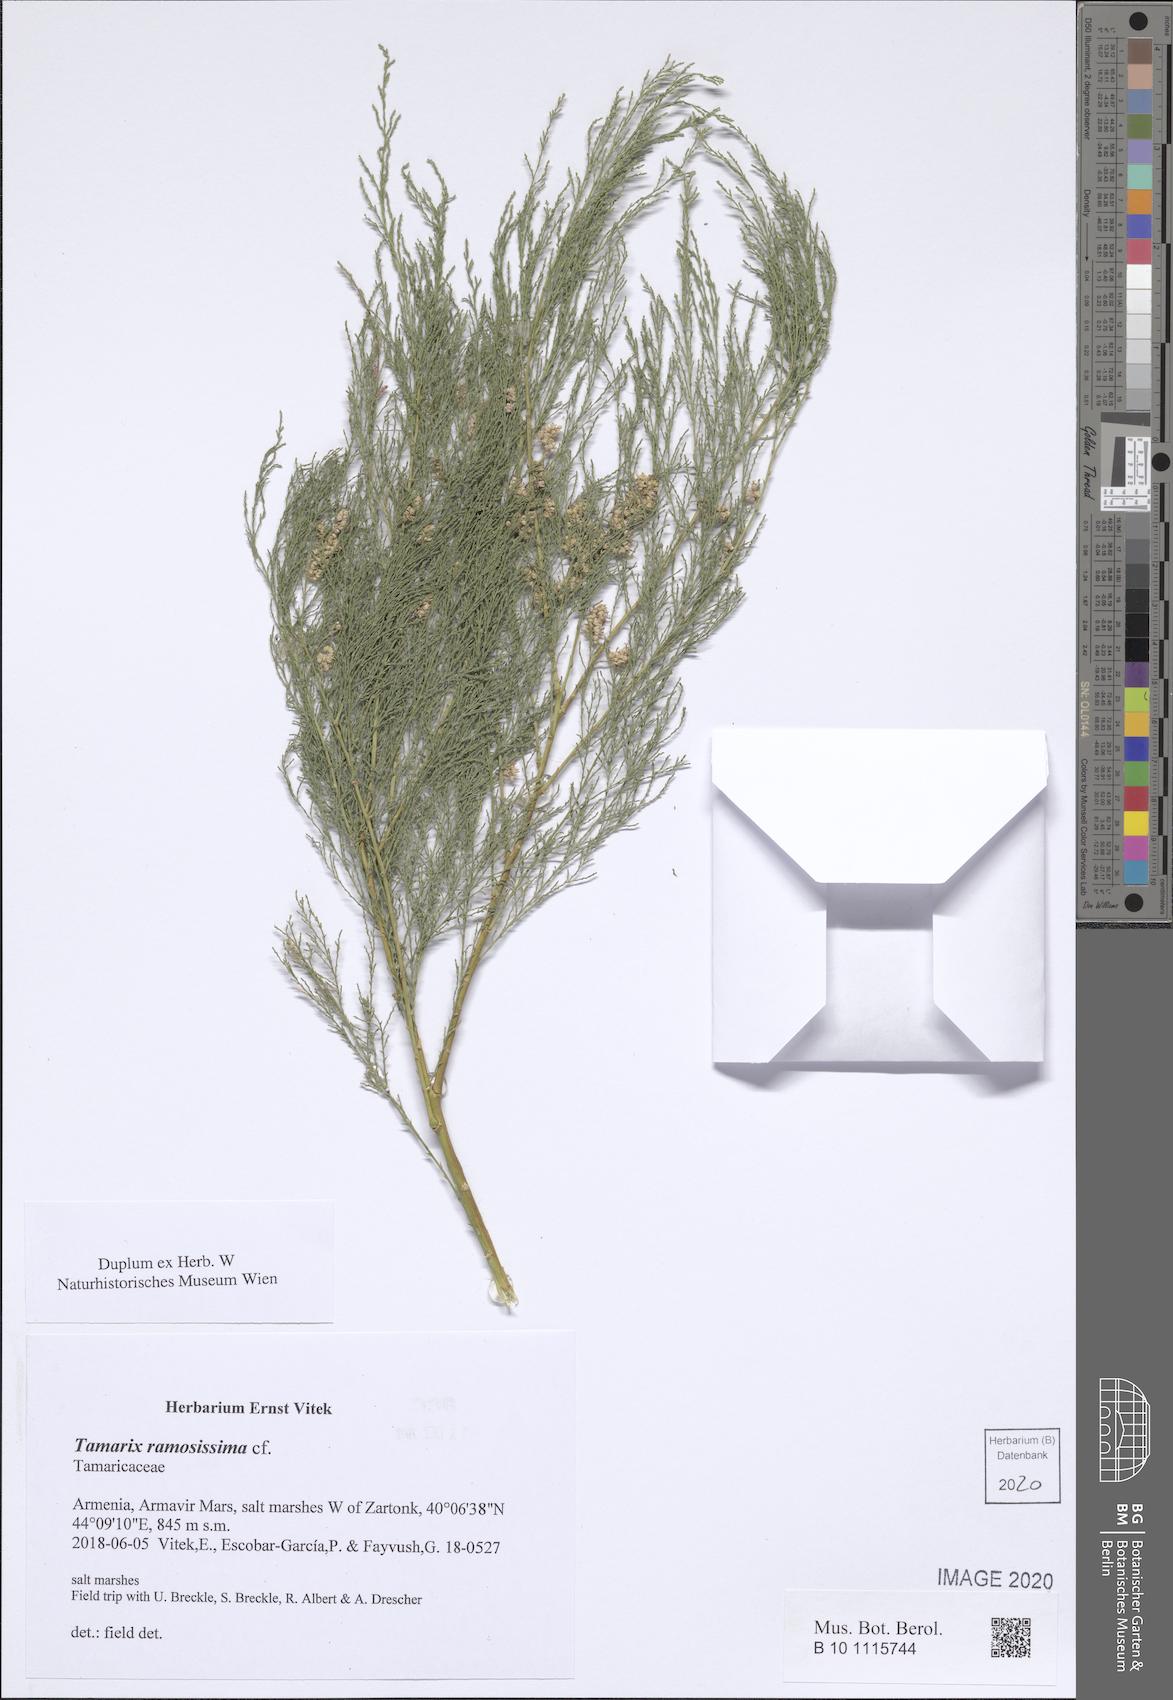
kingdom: Plantae
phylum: Tracheophyta
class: Magnoliopsida
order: Caryophyllales
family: Tamaricaceae
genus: Tamarix
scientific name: Tamarix ramosissima
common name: Pink tamarisk
